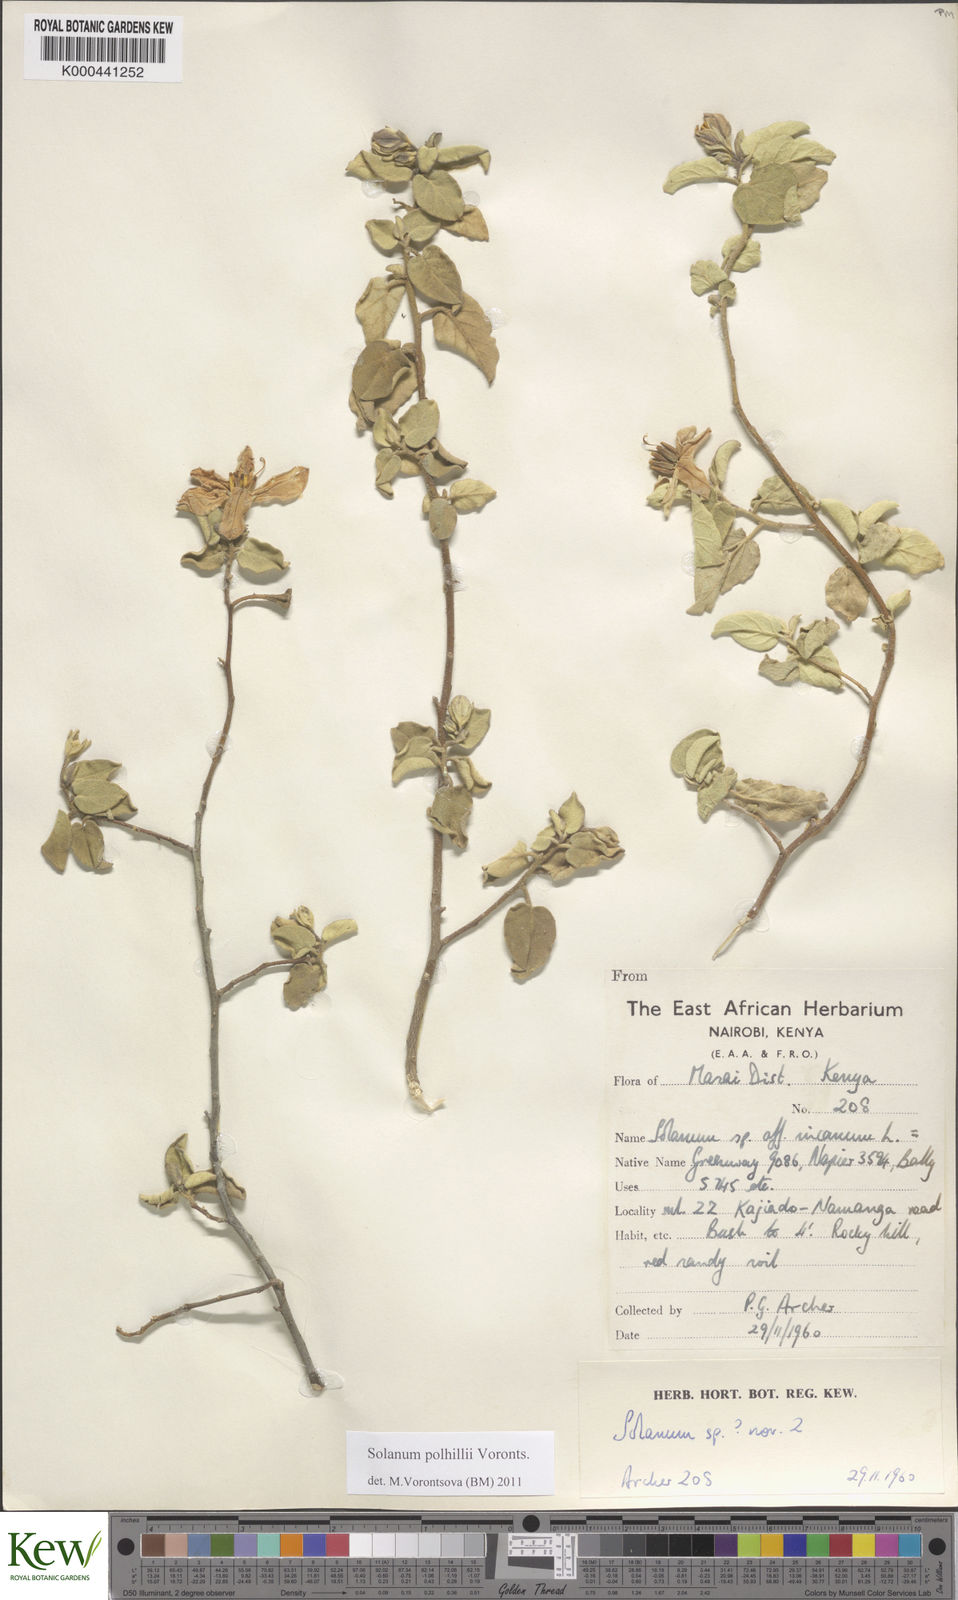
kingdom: Plantae
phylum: Tracheophyta
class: Magnoliopsida
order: Solanales
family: Solanaceae
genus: Solanum
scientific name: Solanum polhillii
